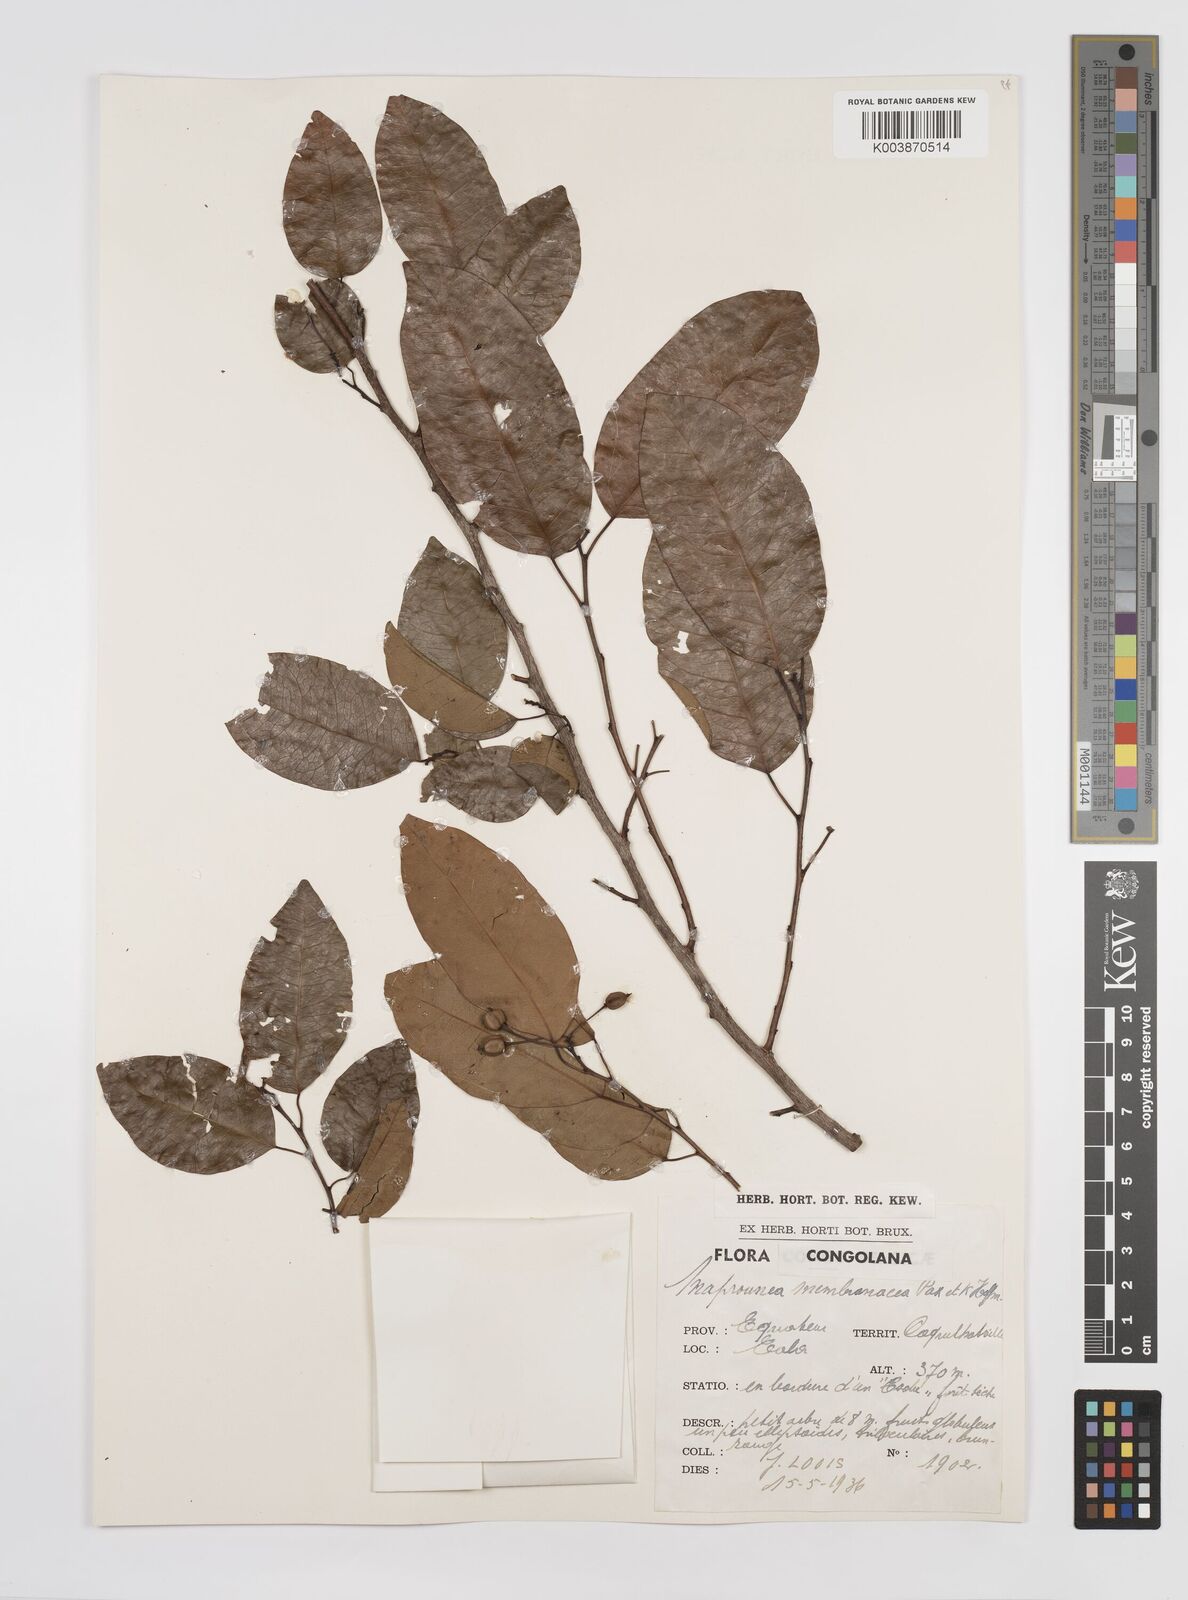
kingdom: Plantae
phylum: Tracheophyta
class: Magnoliopsida
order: Malpighiales
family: Euphorbiaceae
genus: Maprounea
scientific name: Maprounea membranacea
